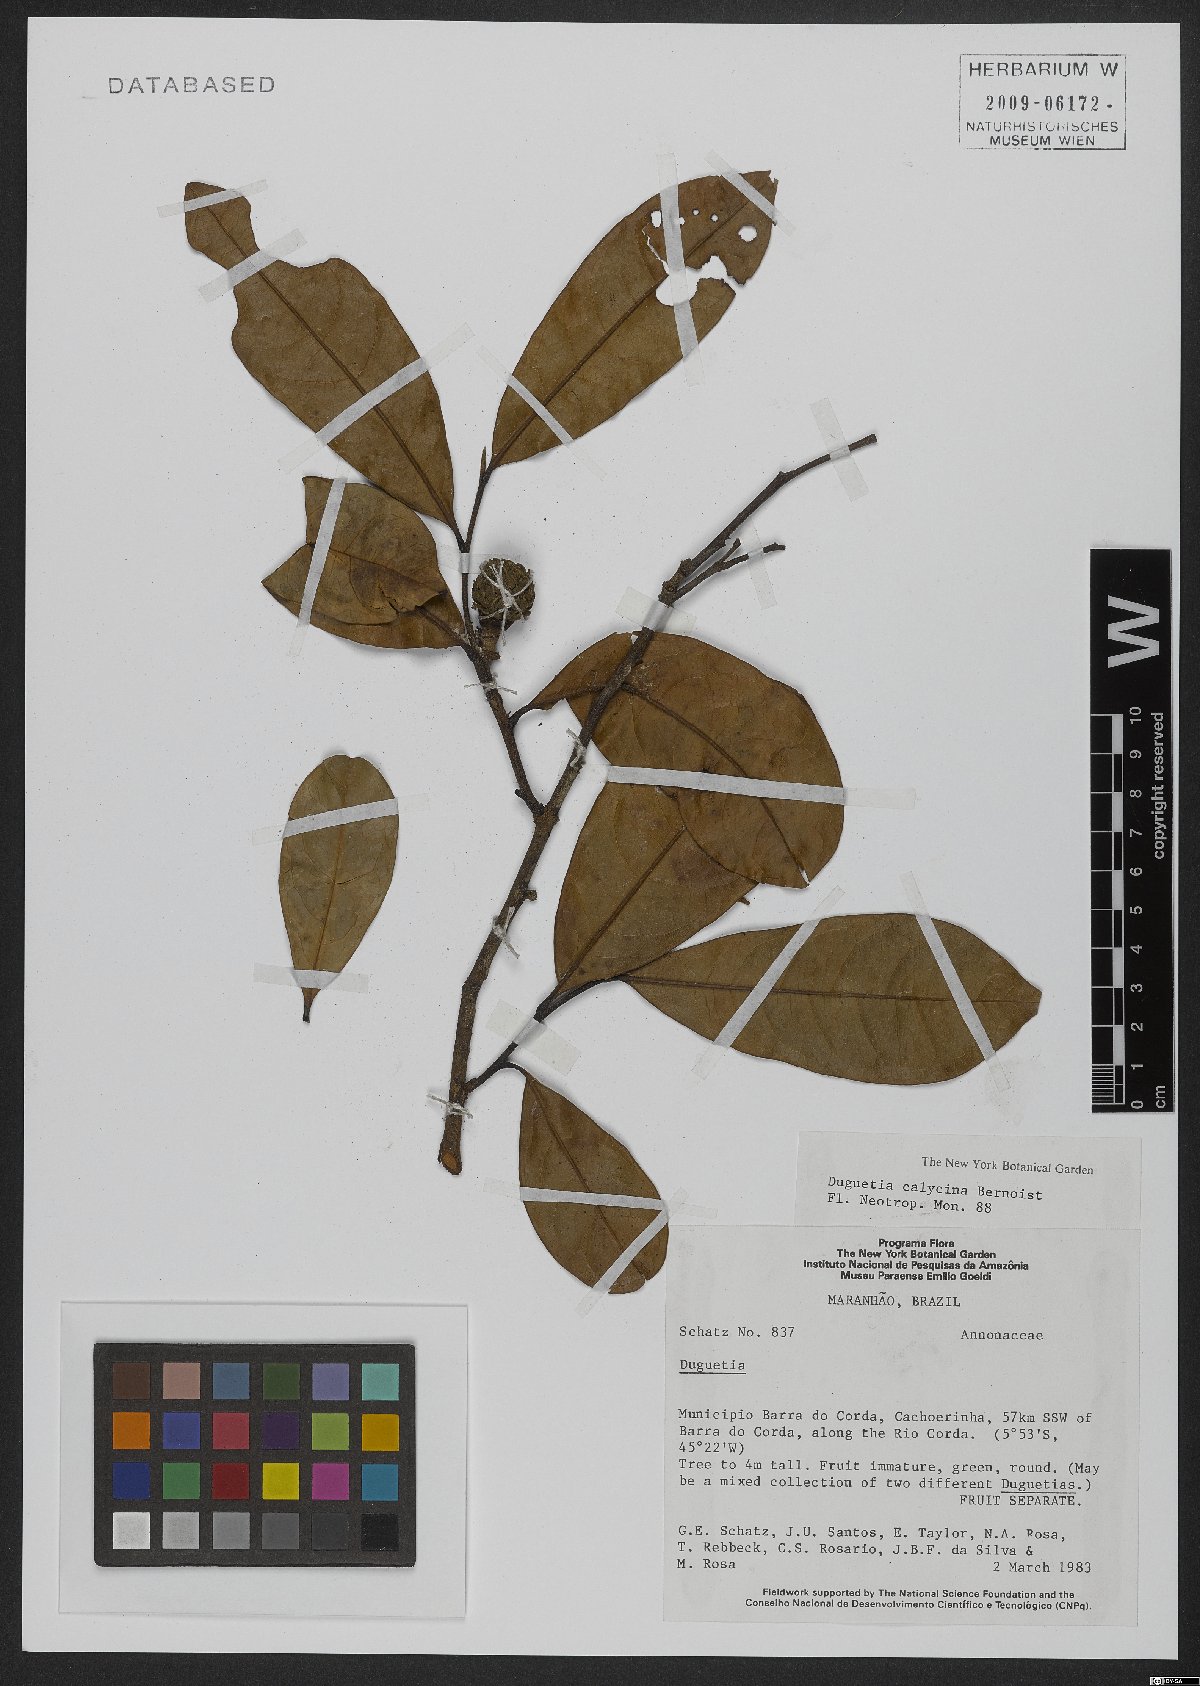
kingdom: Plantae
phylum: Tracheophyta
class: Magnoliopsida
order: Magnoliales
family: Annonaceae
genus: Duguetia
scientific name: Duguetia calycina
